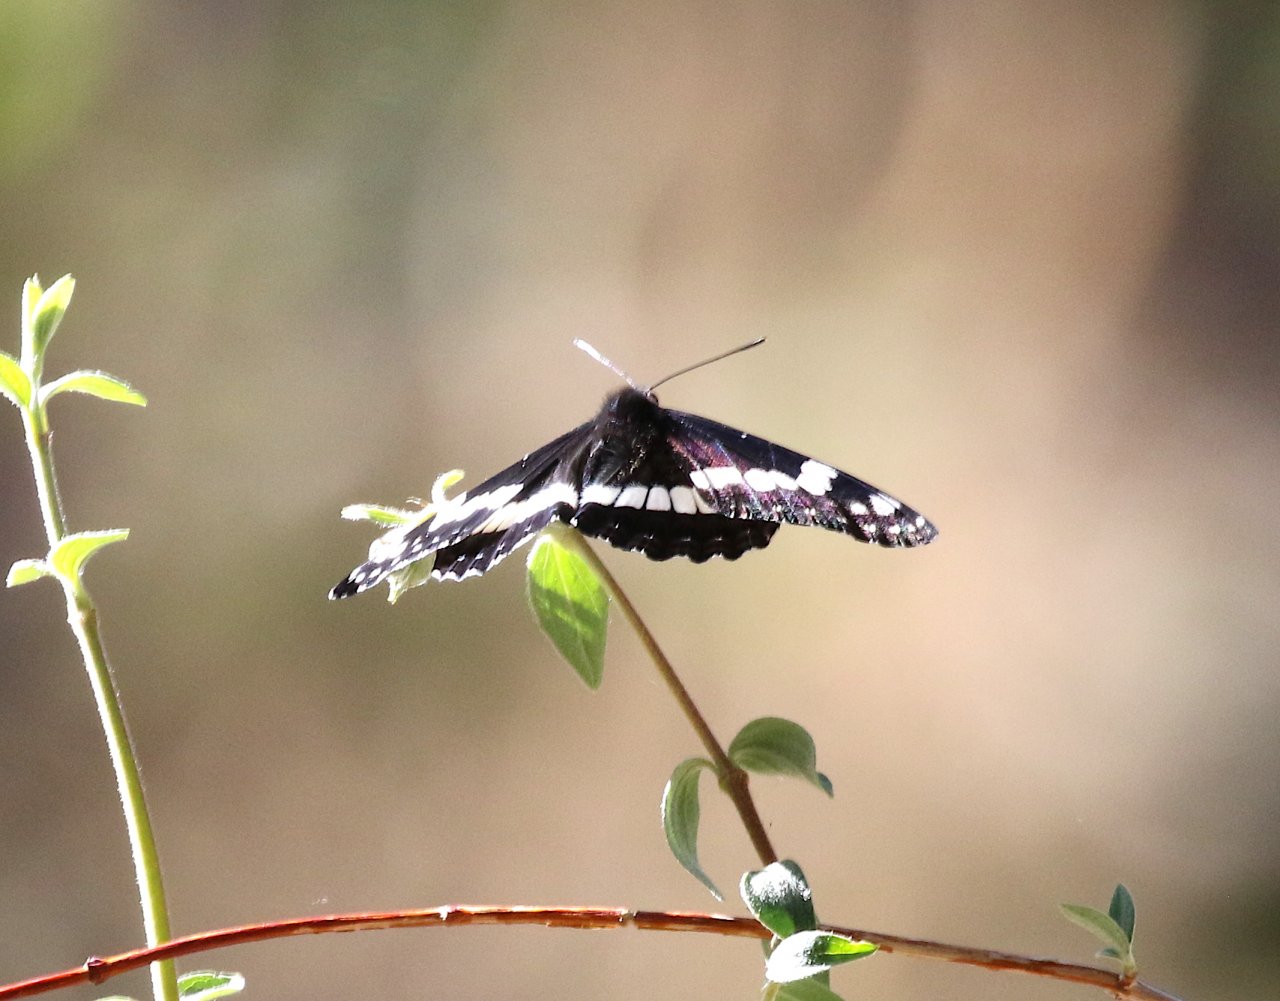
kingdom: Animalia
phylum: Arthropoda
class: Insecta
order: Lepidoptera
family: Nymphalidae
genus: Limenitis
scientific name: Limenitis weidemeyerii
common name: Weidemeyer's Admiral
